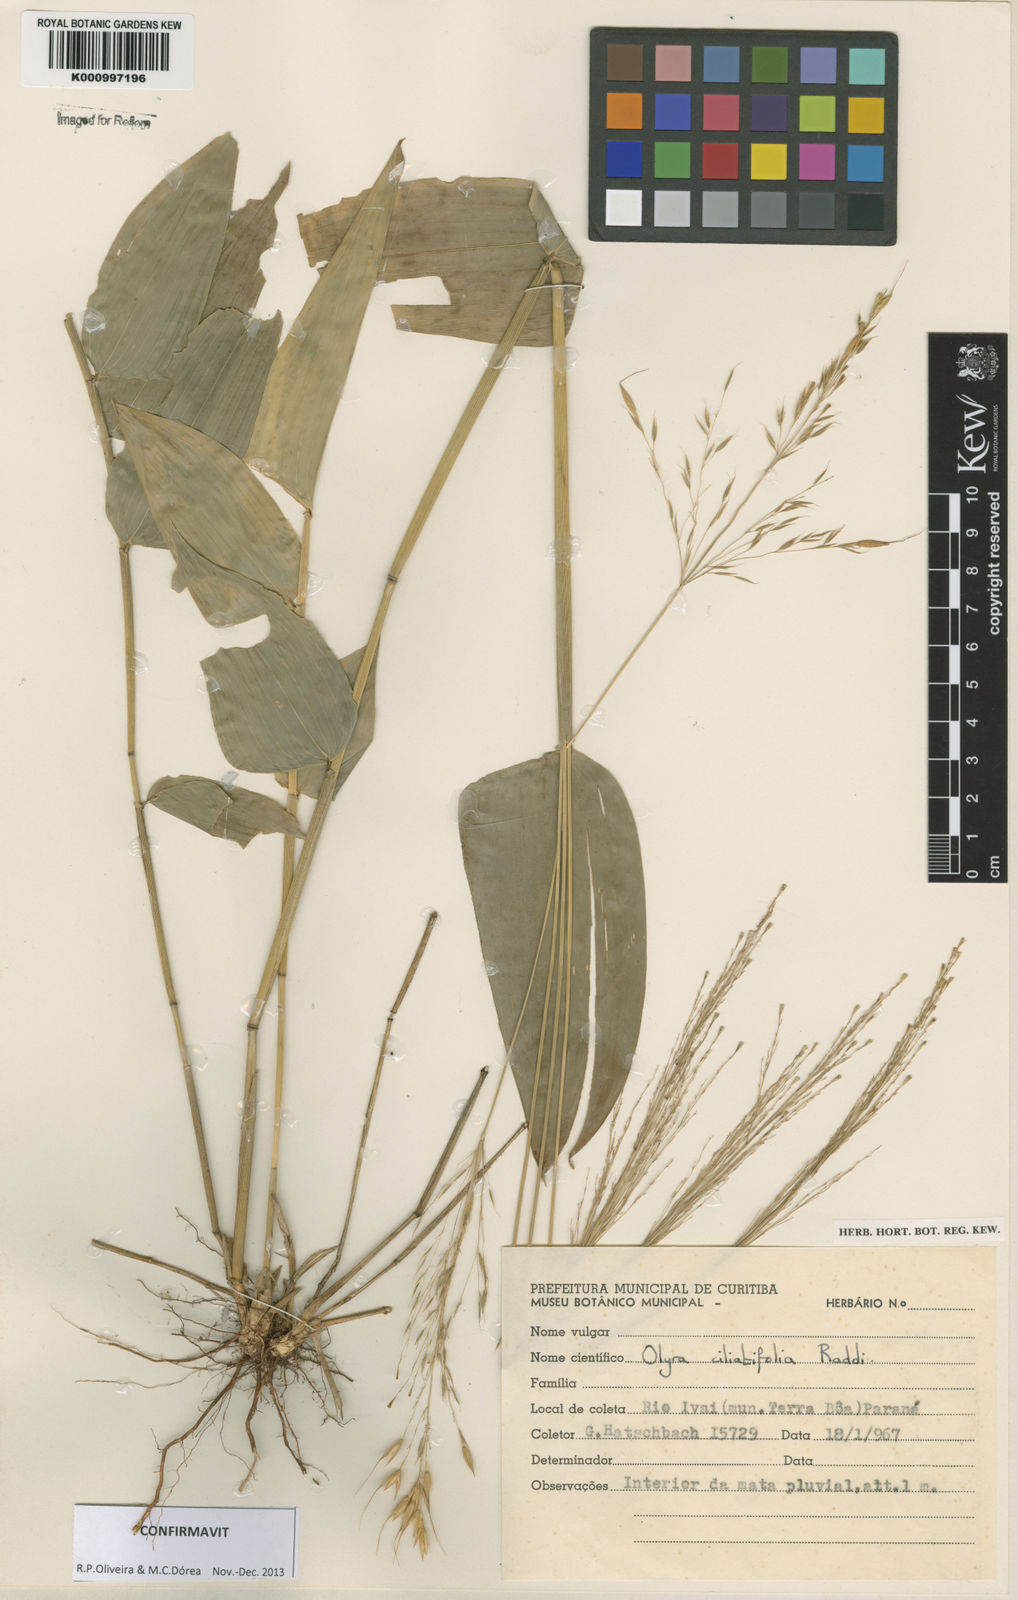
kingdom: Plantae
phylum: Tracheophyta
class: Liliopsida
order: Poales
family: Poaceae
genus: Olyra
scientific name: Olyra ciliatifolia
